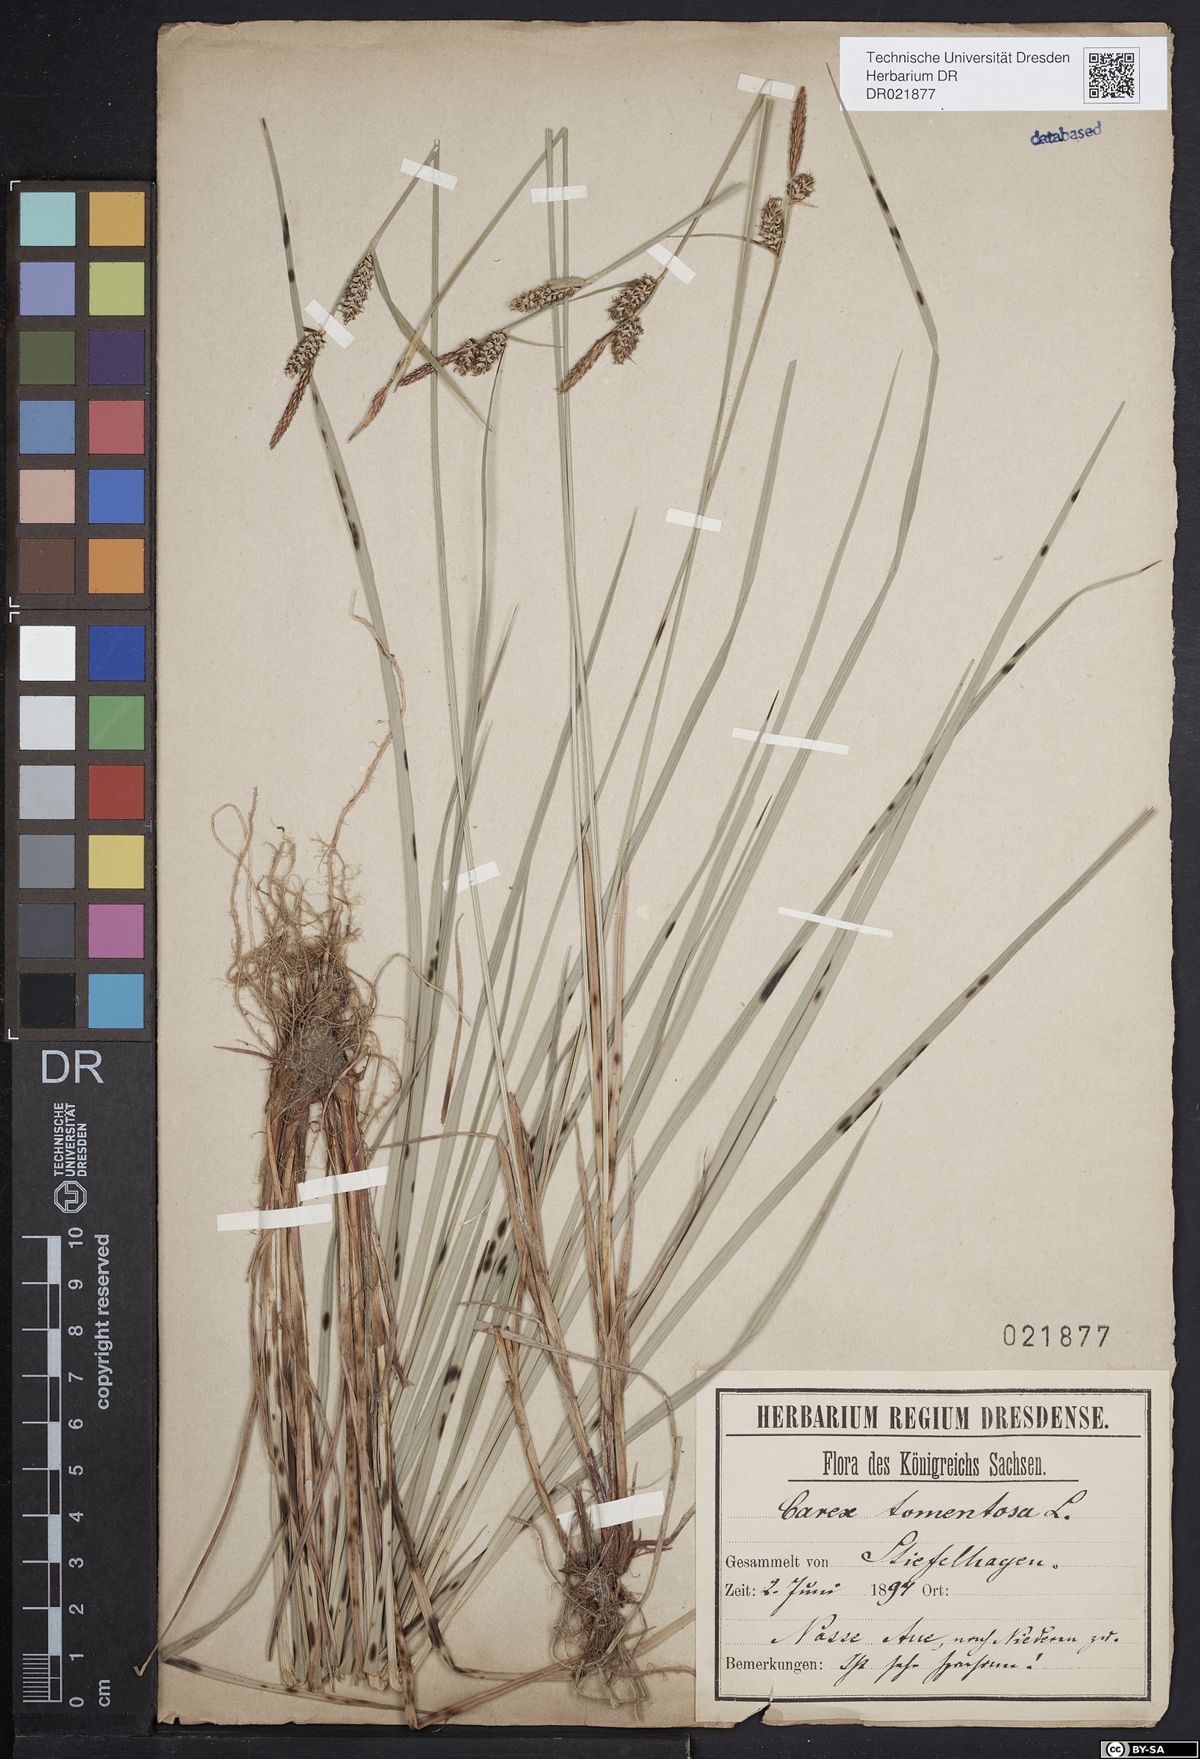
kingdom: Plantae
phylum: Tracheophyta
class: Liliopsida
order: Poales
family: Cyperaceae
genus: Carex
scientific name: Carex tomentosa
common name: Downy-fruited sedge
